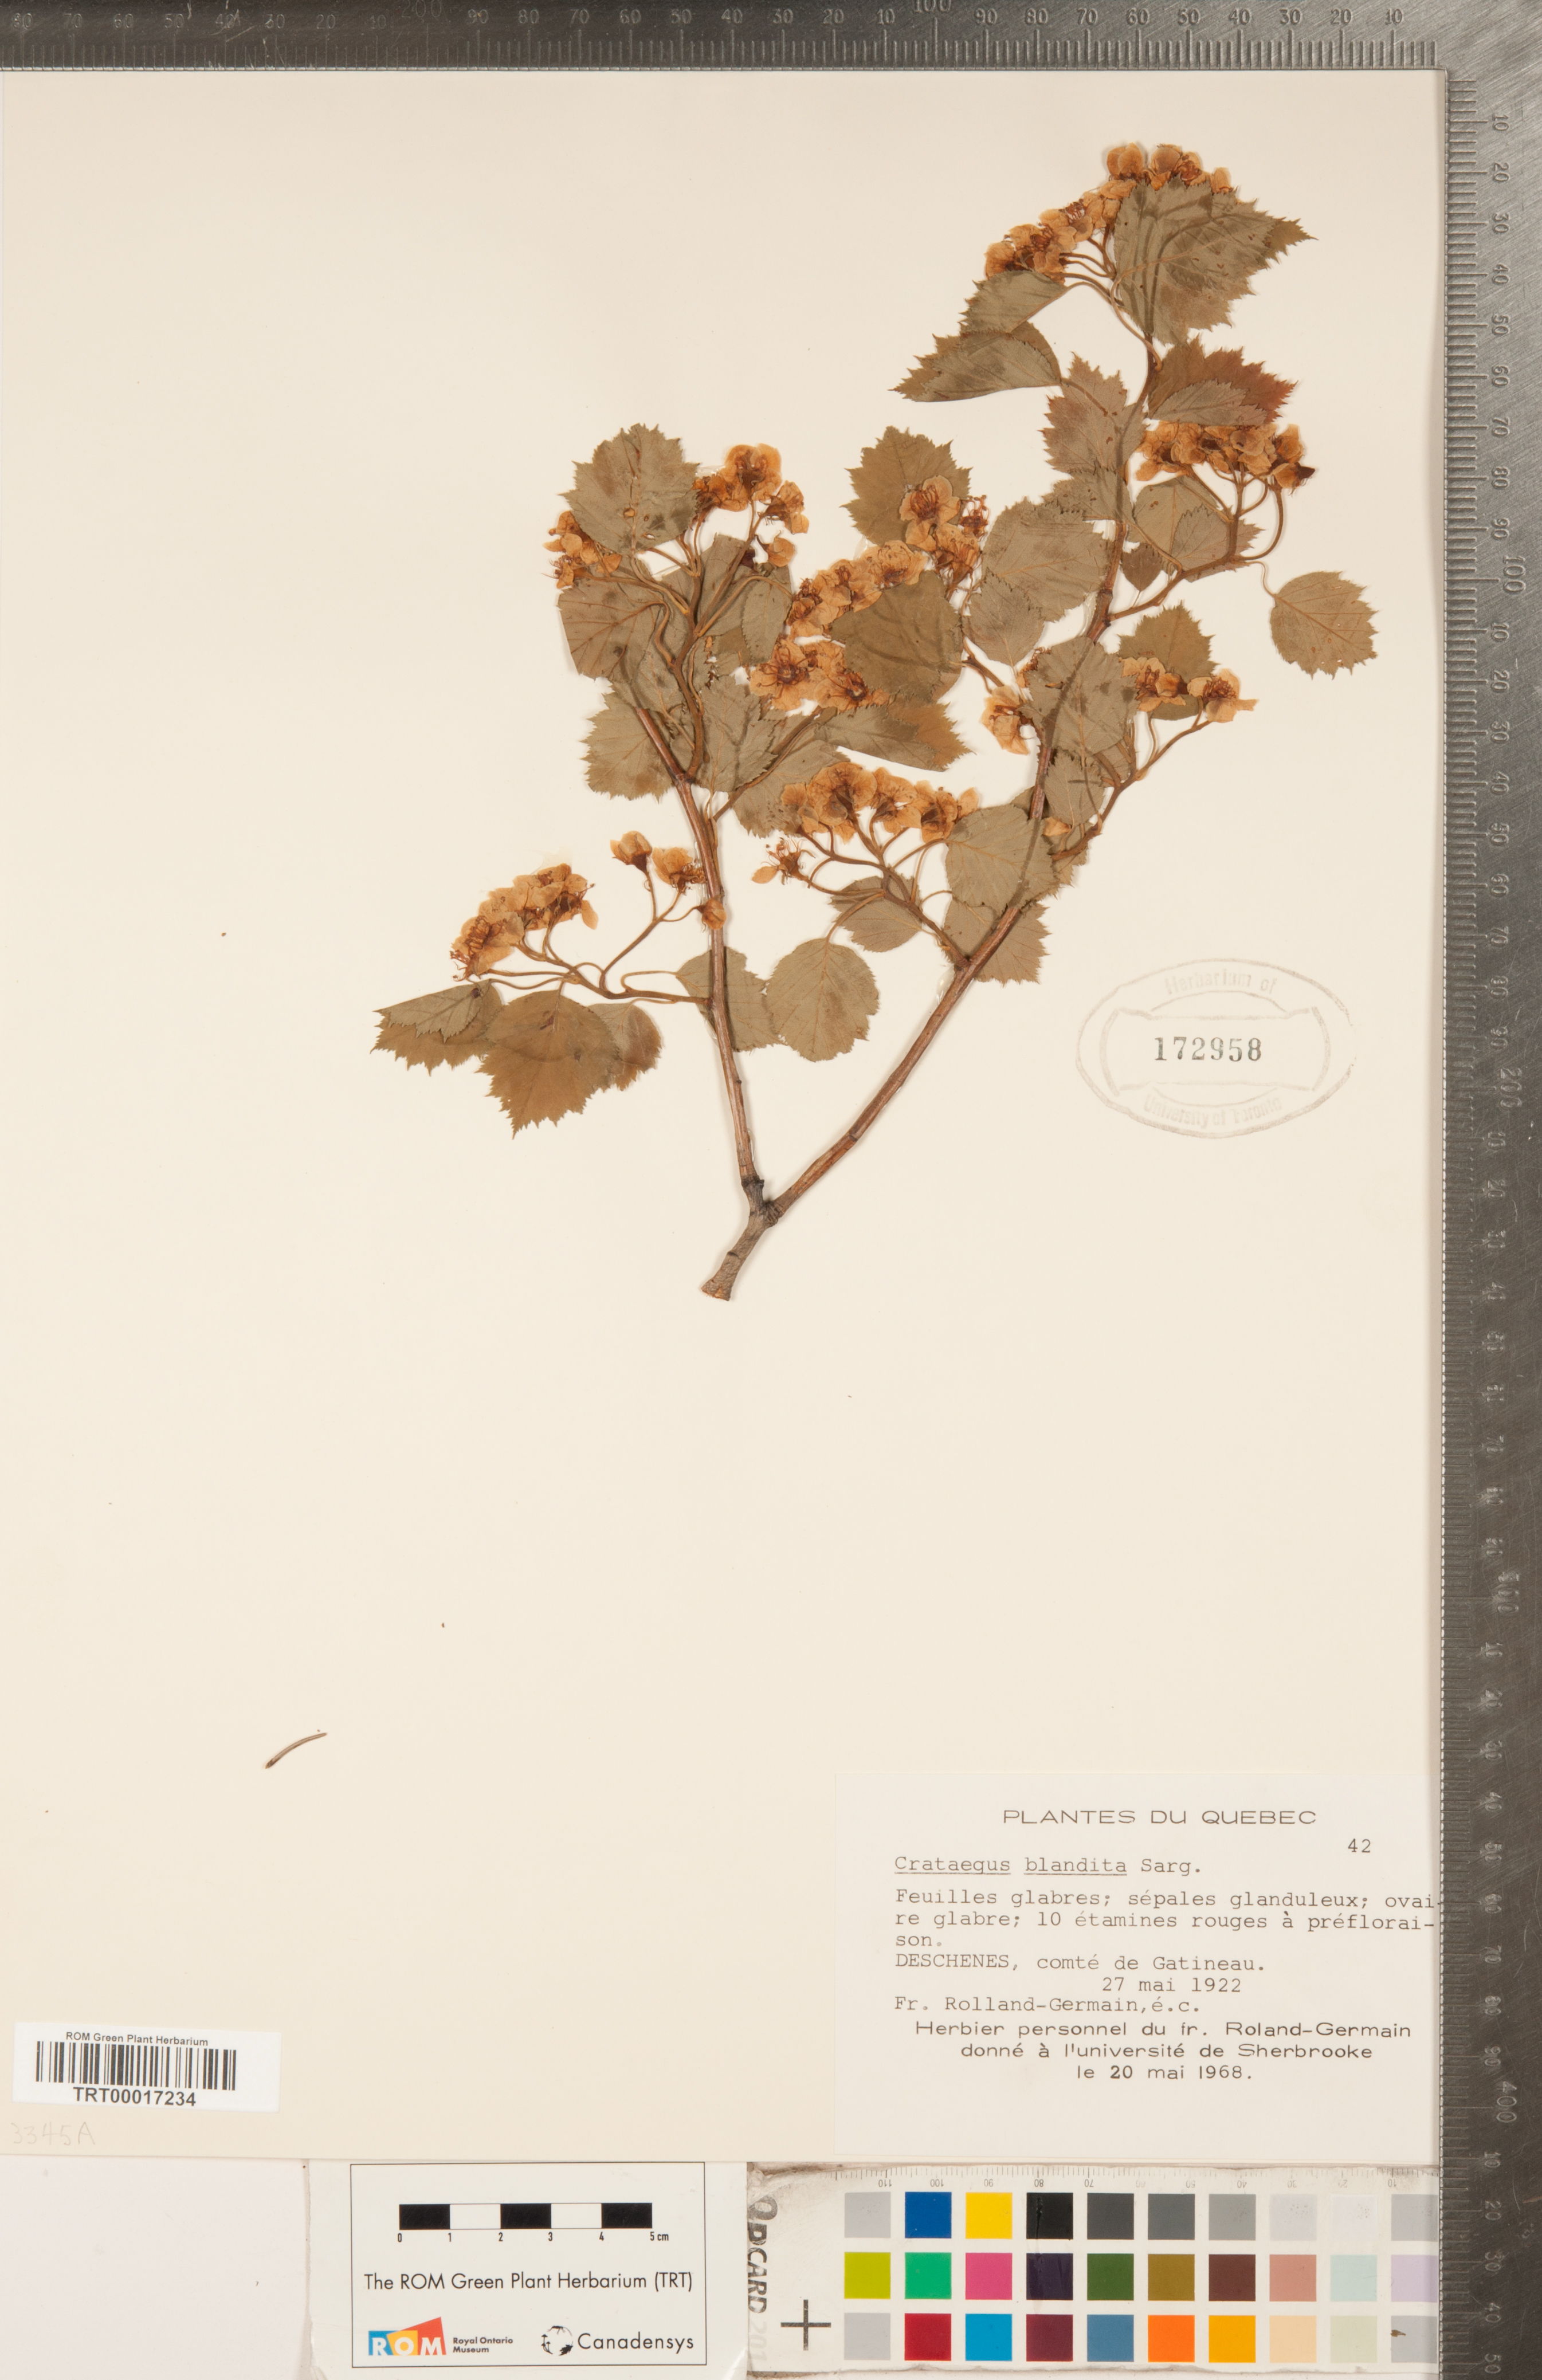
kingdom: Plantae
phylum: Tracheophyta
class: Magnoliopsida
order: Rosales
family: Rosaceae
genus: Crataegus
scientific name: Crataegus flabellata
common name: Bosc's hawthorn
